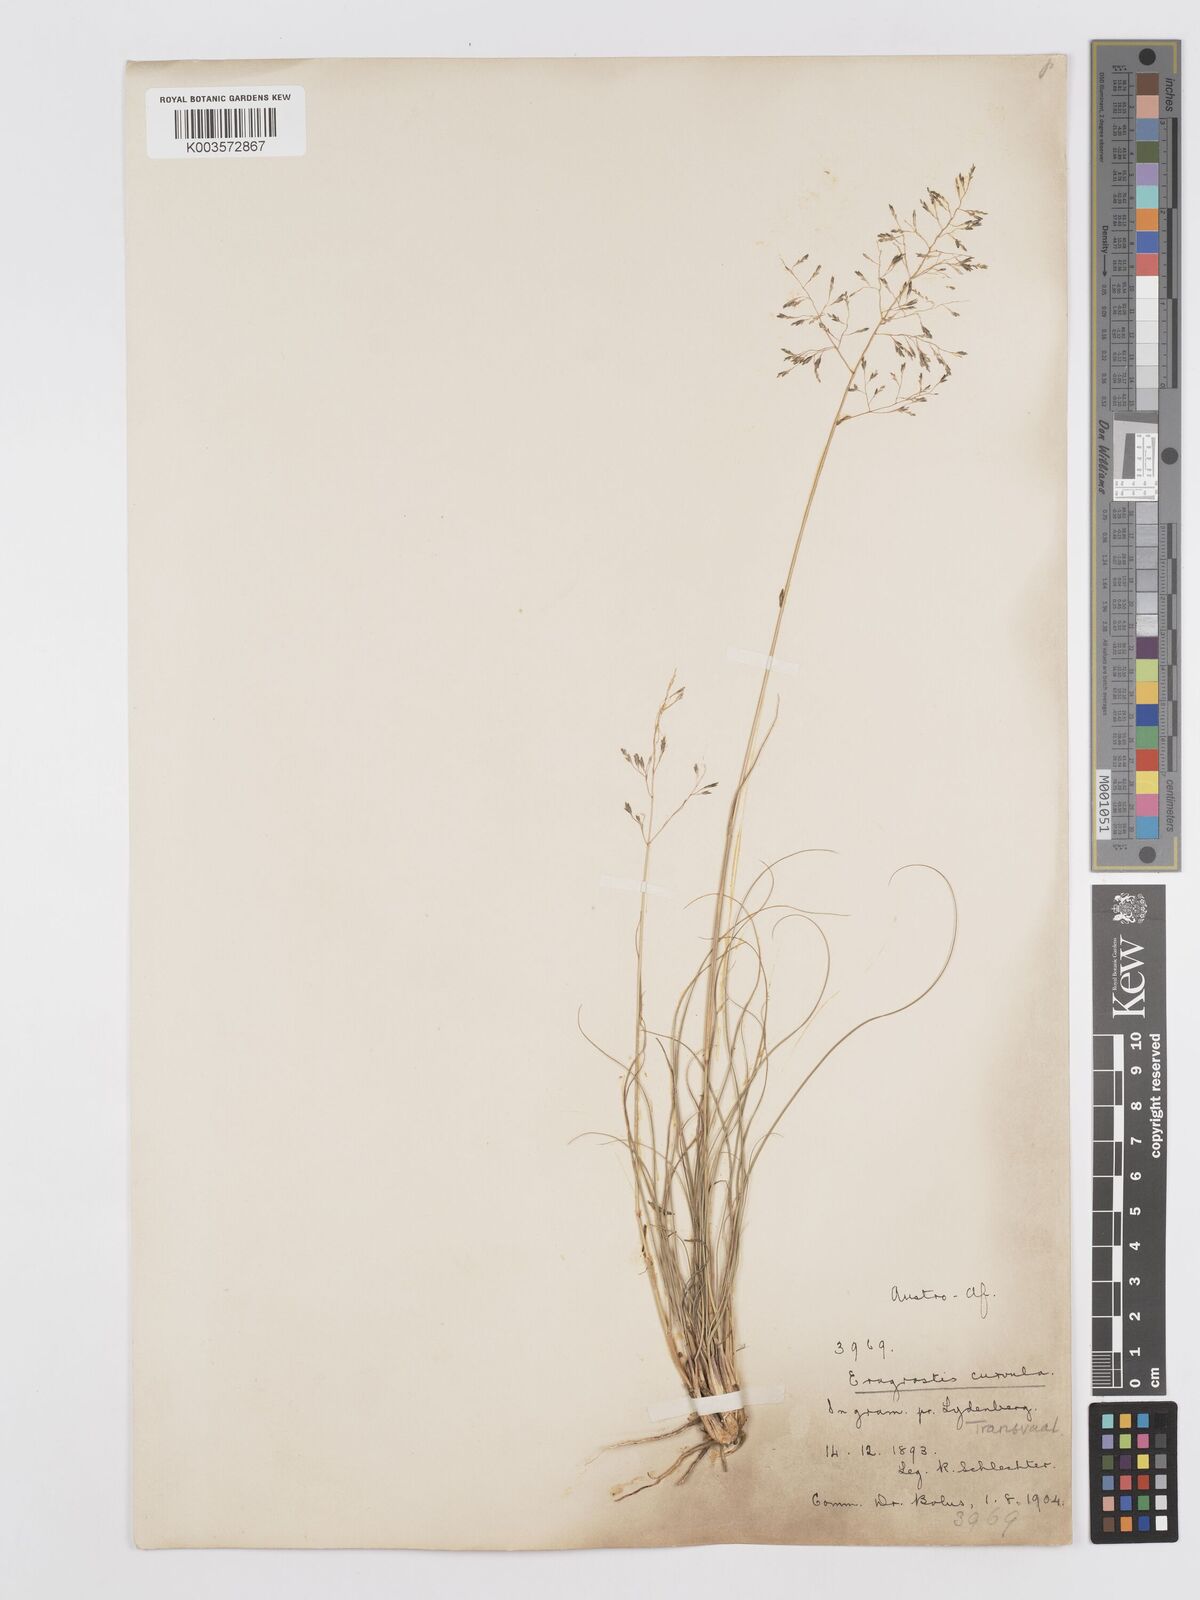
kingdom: Plantae
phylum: Tracheophyta
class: Liliopsida
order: Poales
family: Poaceae
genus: Eragrostis
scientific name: Eragrostis curvula
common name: African love-grass
